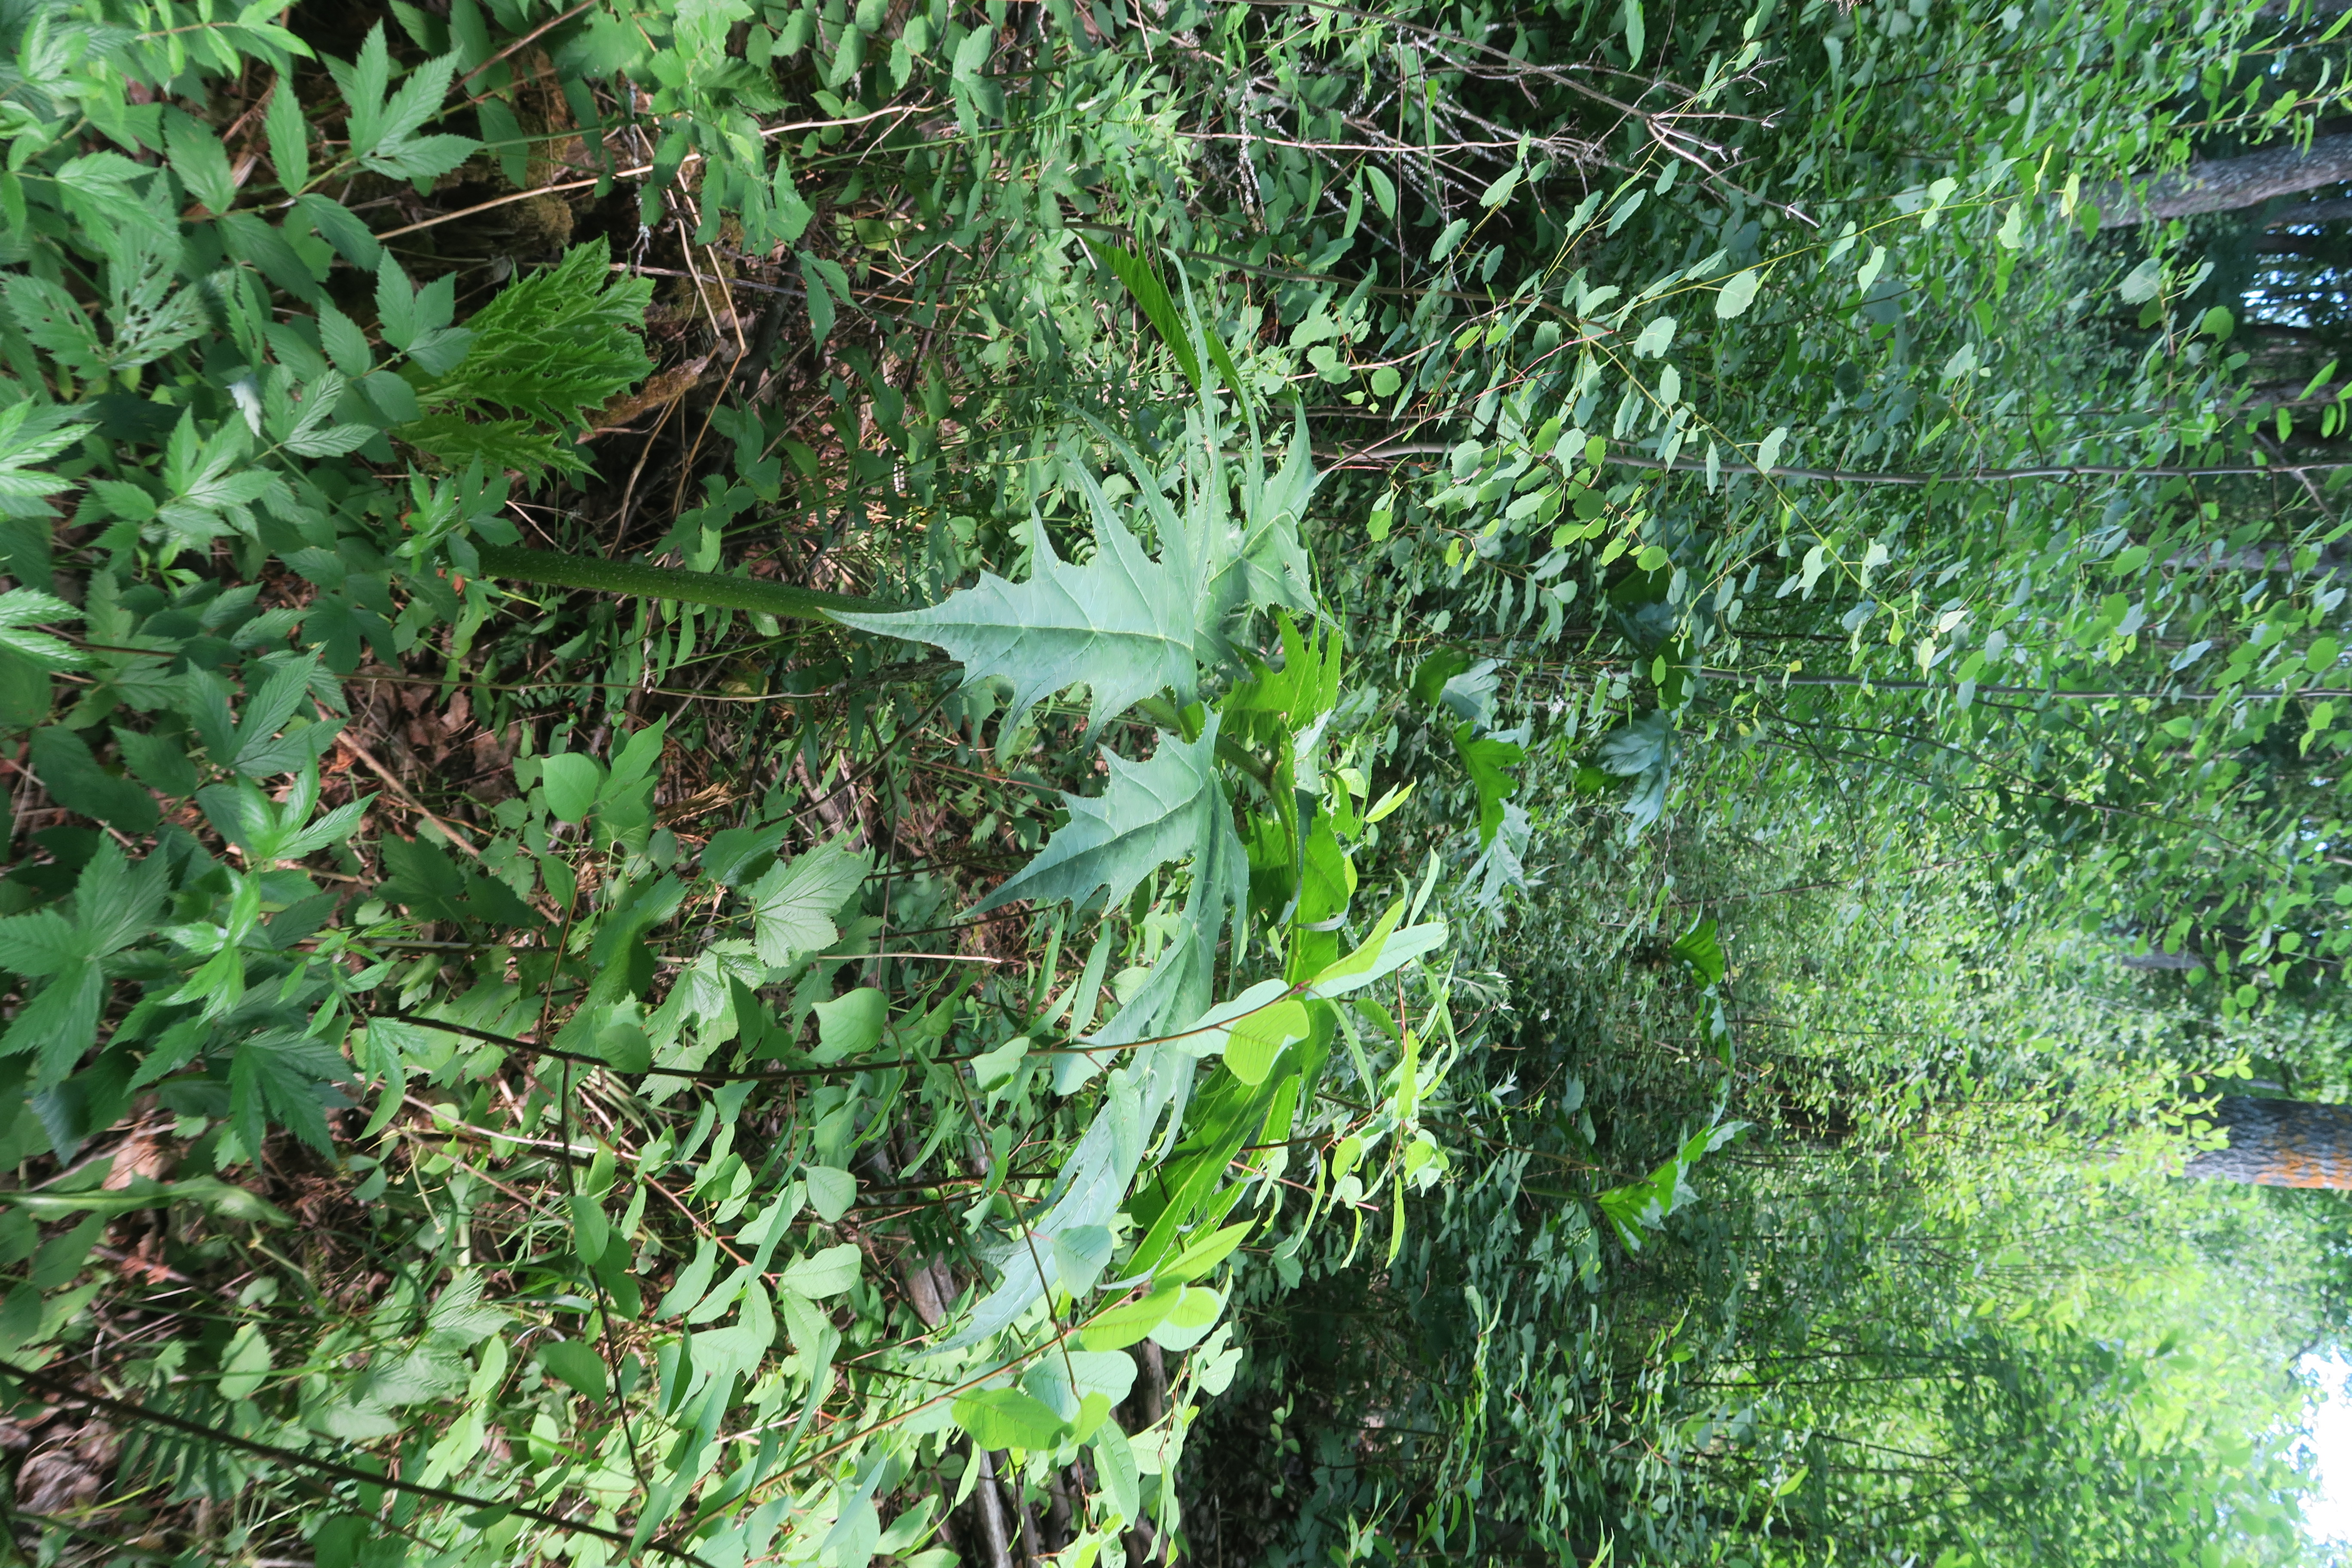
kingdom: Plantae
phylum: Tracheophyta
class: Magnoliopsida
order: Apiales
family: Apiaceae
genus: Heracleum
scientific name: Heracleum mantegazzianum
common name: Giant hogweed
